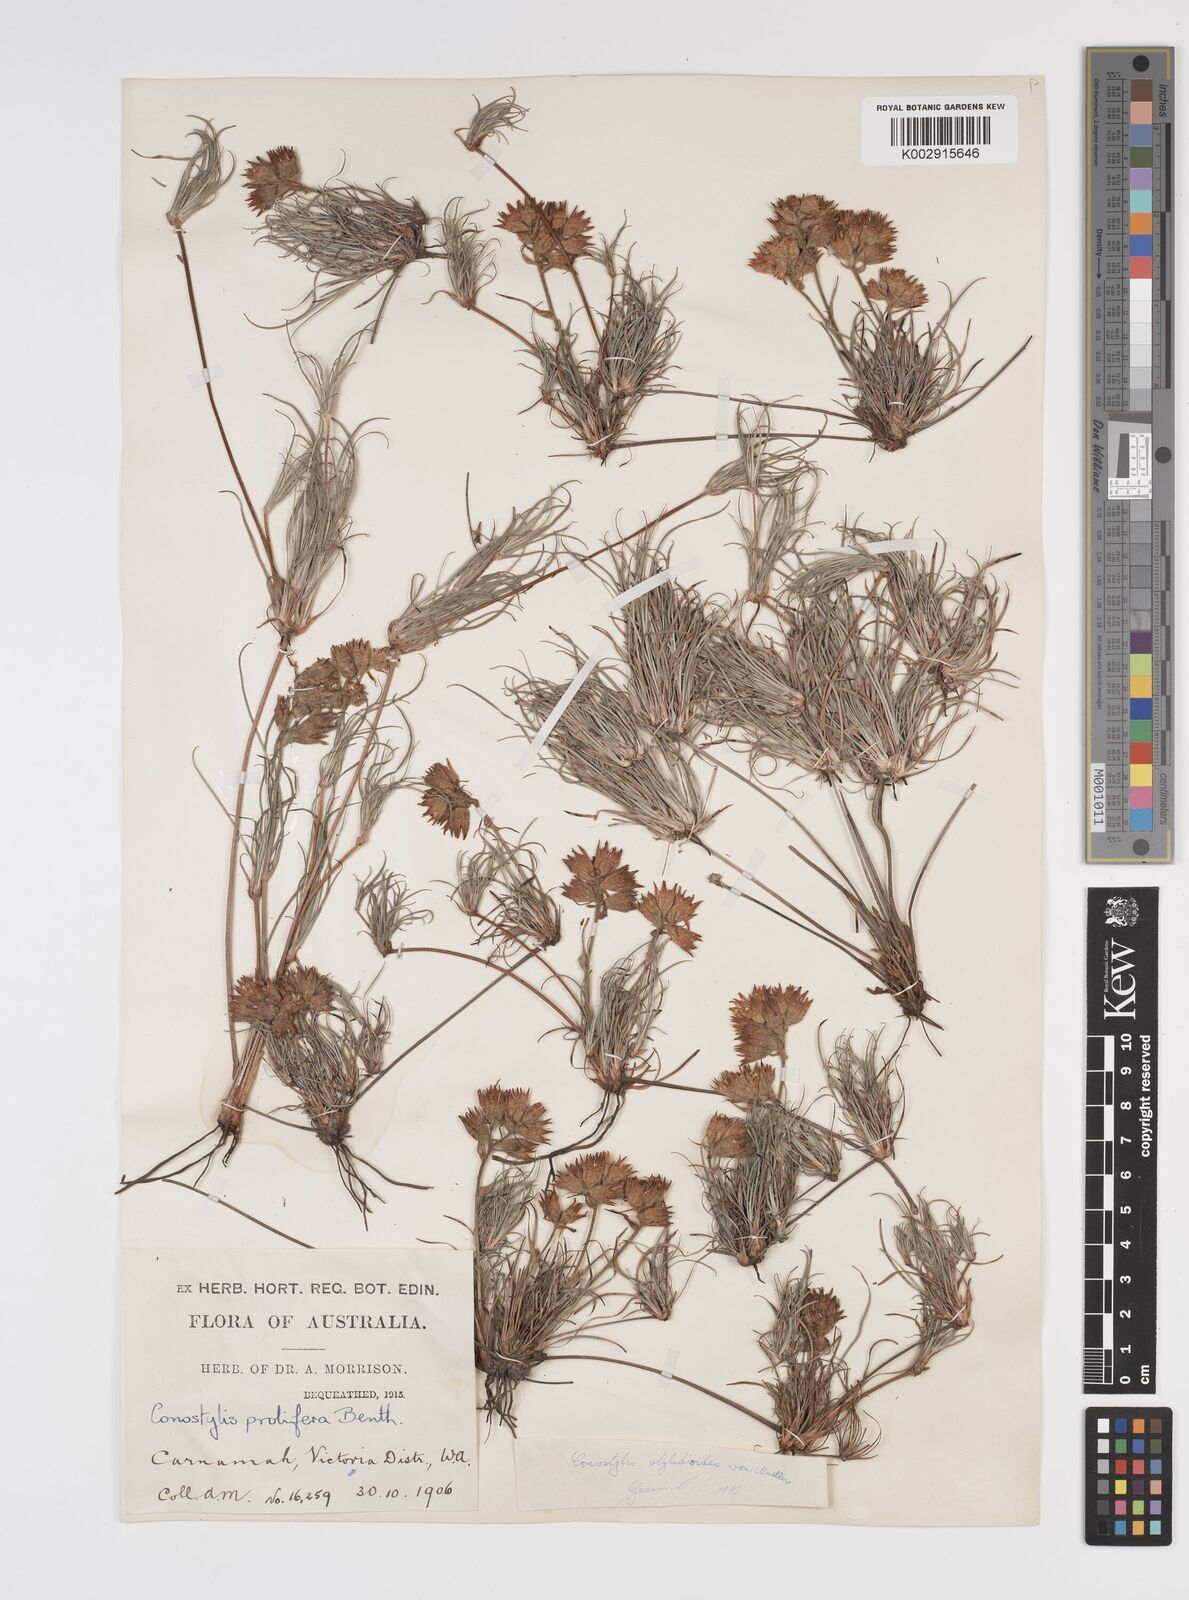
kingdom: Plantae
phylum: Tracheophyta
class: Liliopsida
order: Commelinales
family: Haemodoraceae
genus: Conostylis
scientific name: Conostylis stylidioides
